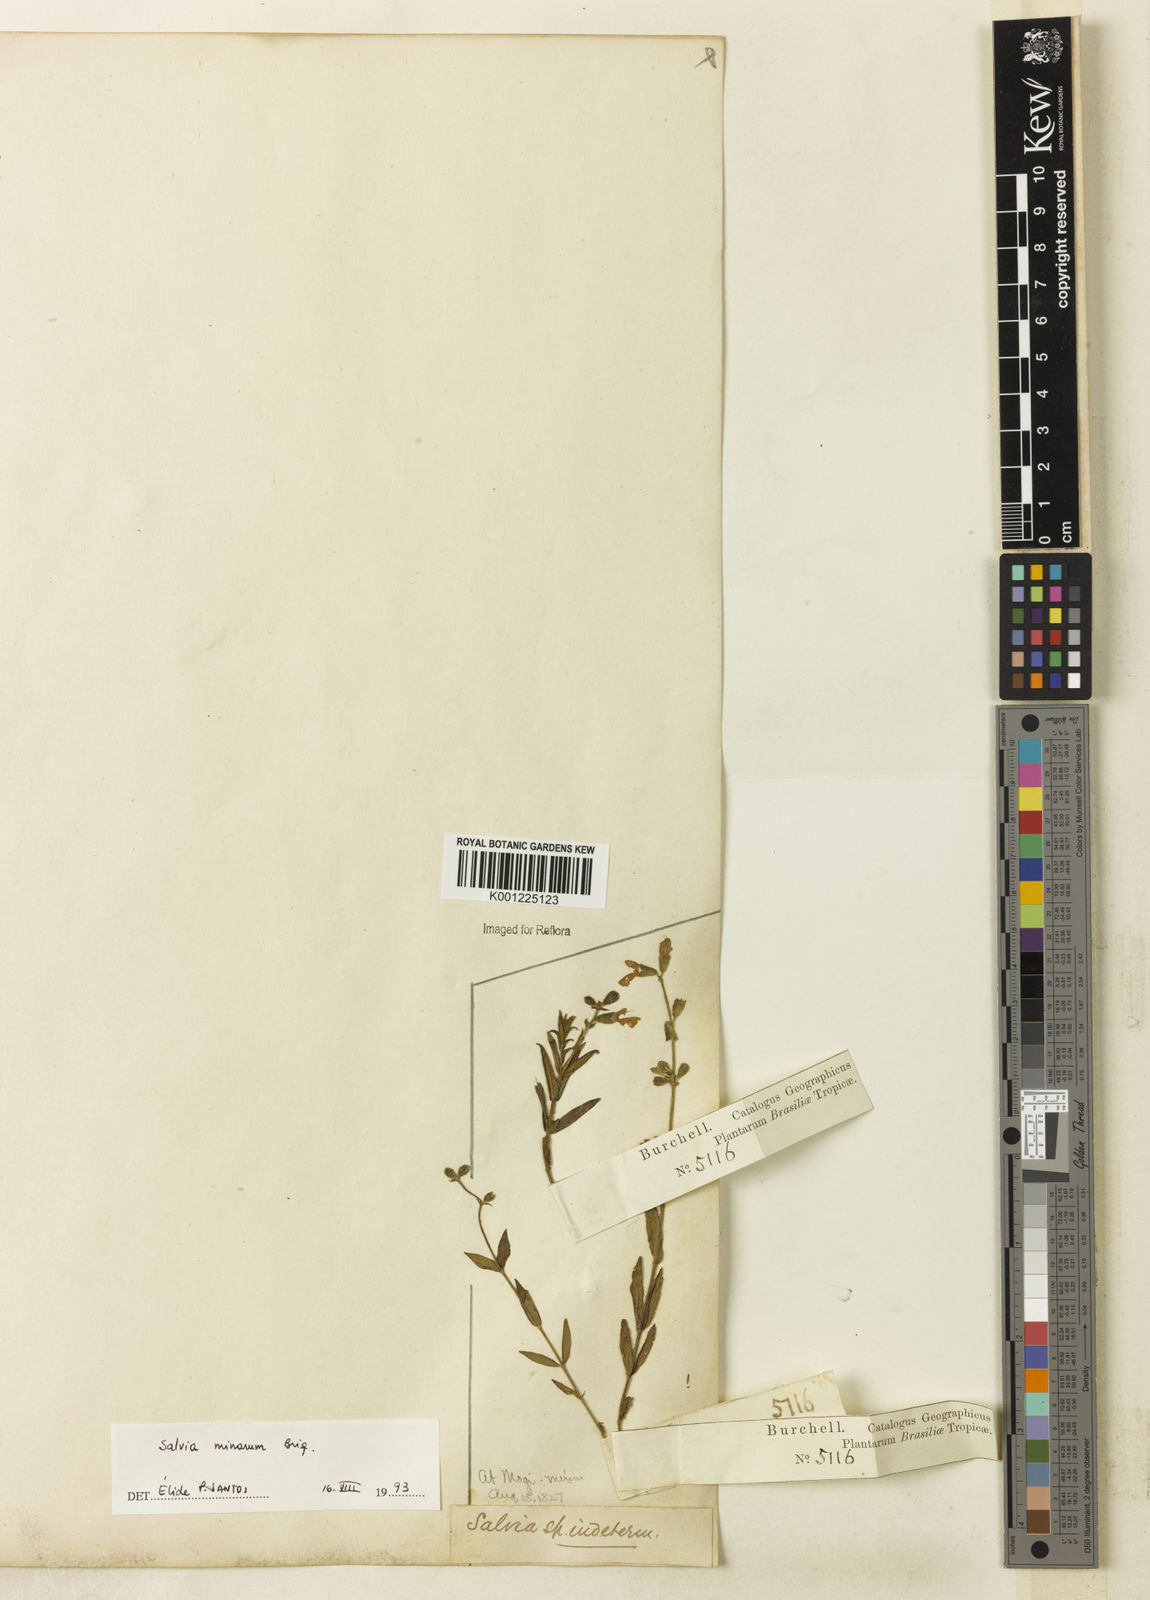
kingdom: Plantae
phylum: Tracheophyta
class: Magnoliopsida
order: Lamiales
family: Lamiaceae
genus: Salvia
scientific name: Salvia minarum
